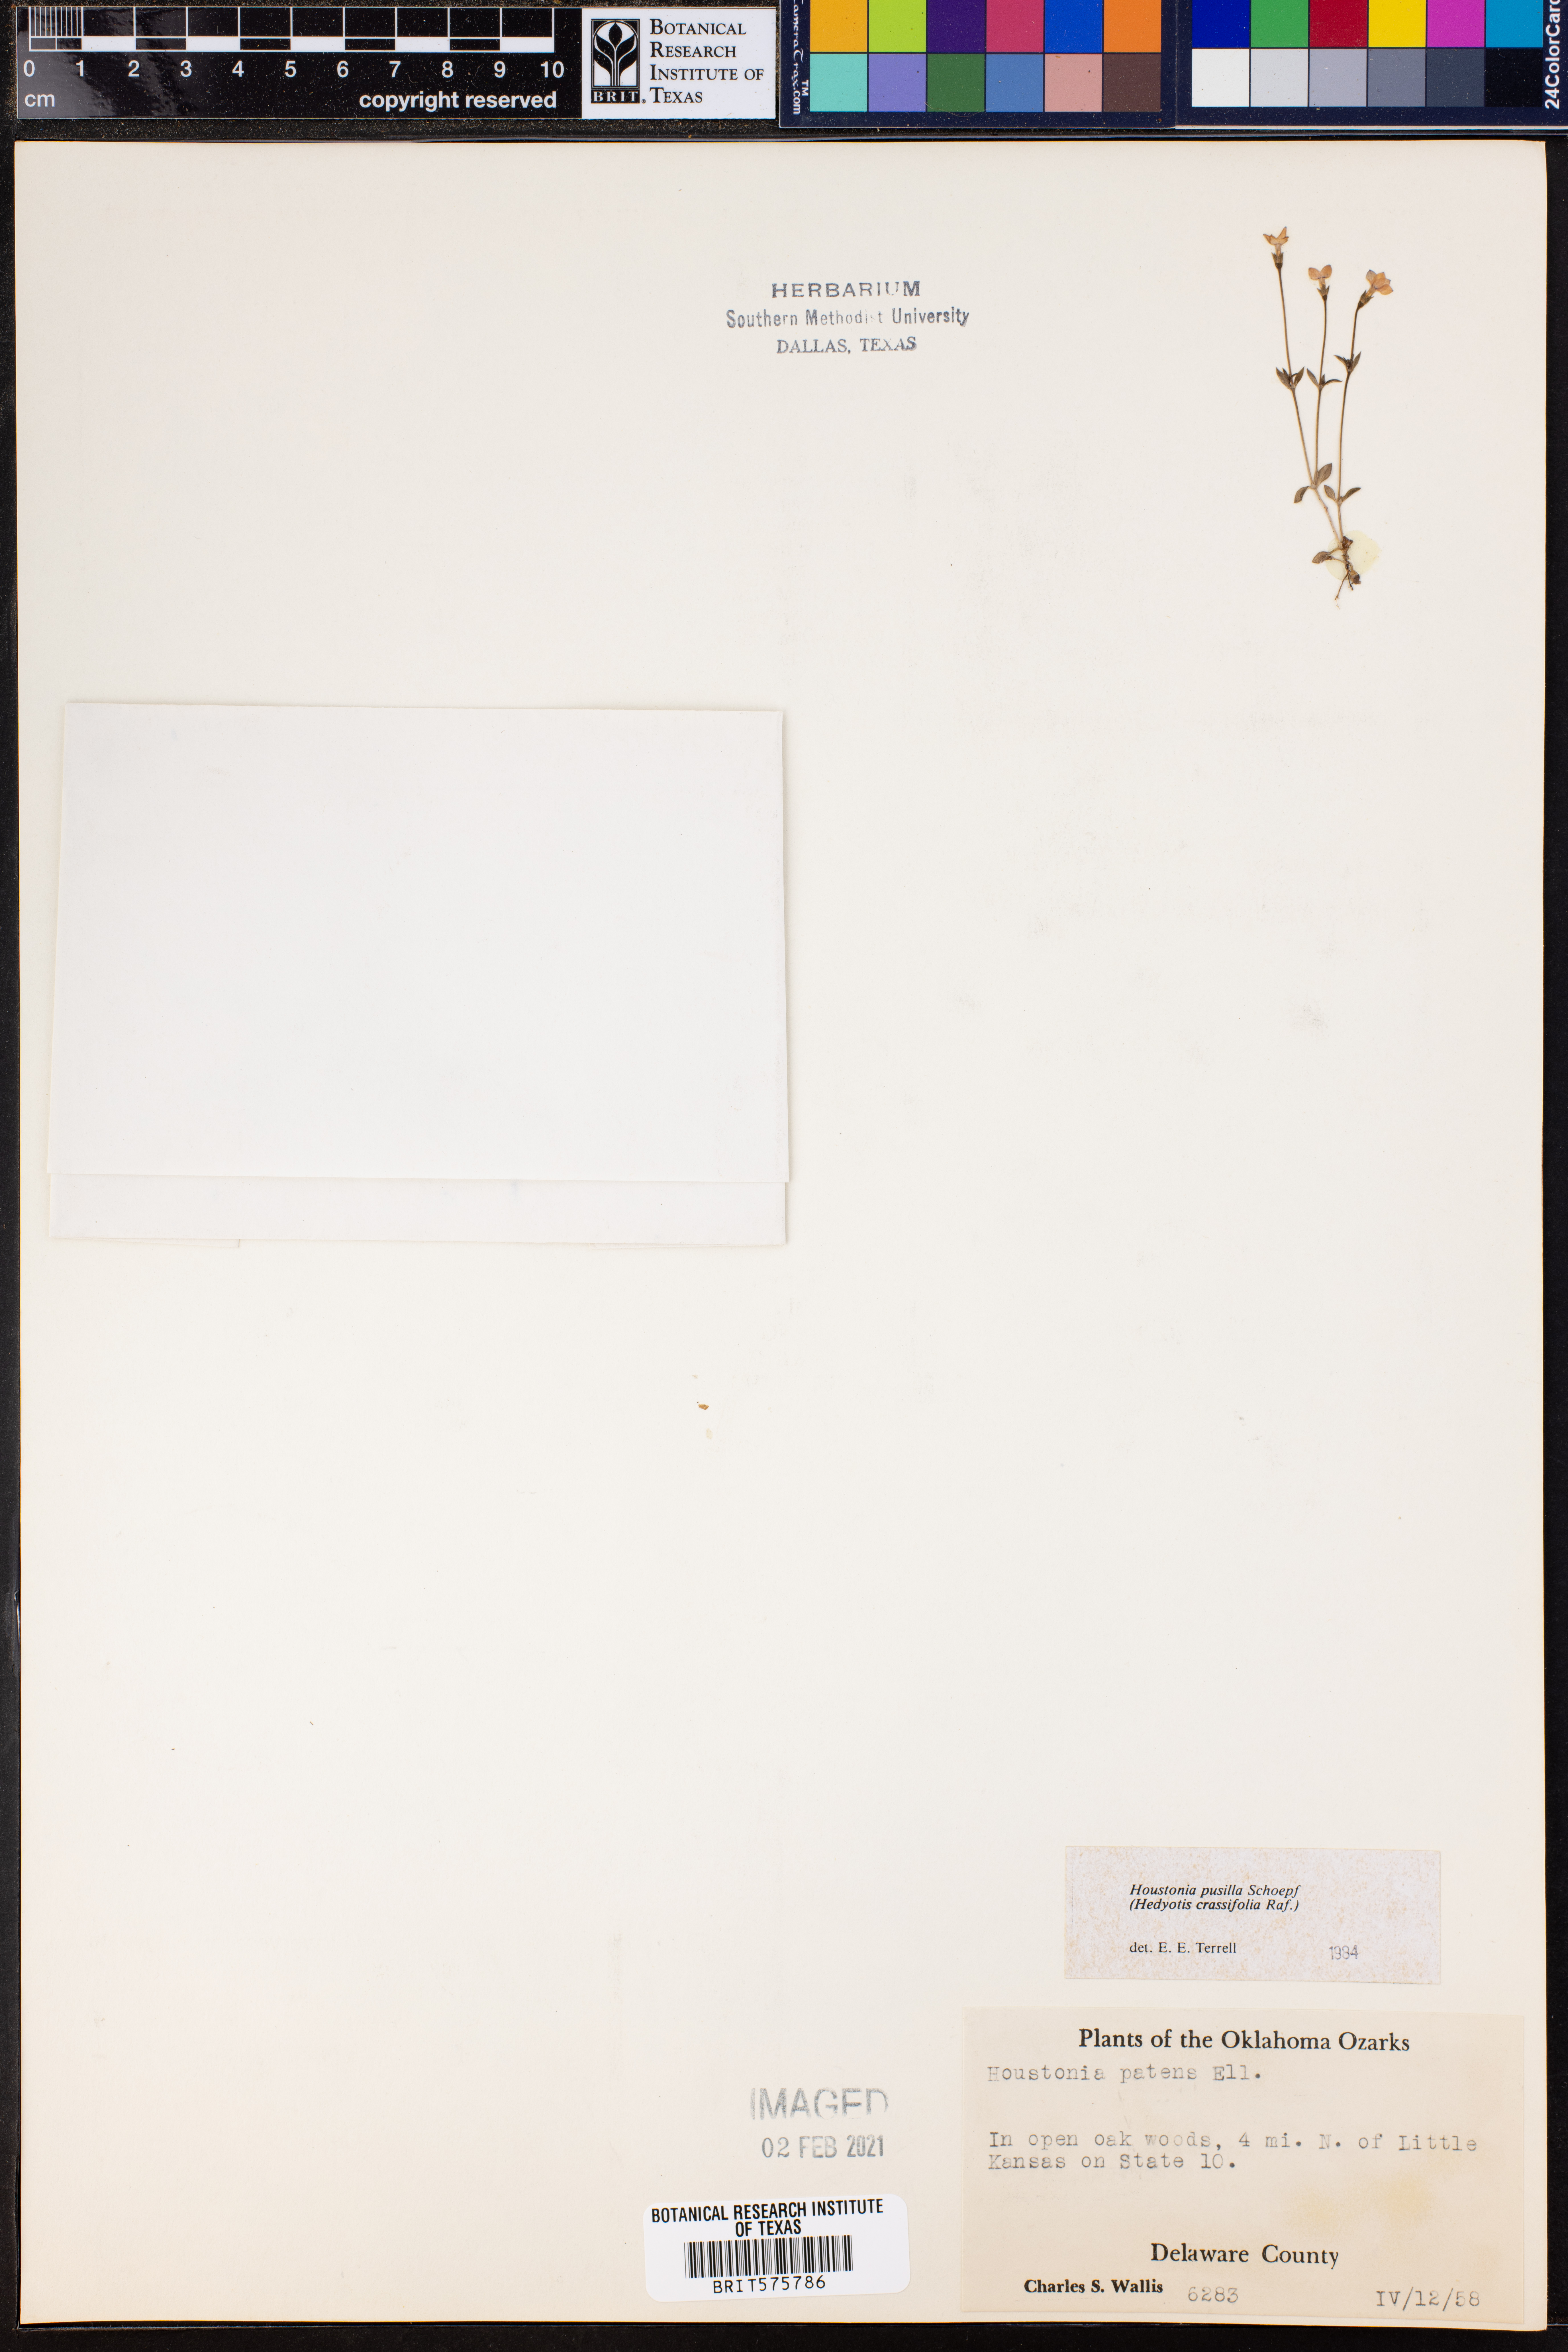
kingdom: Plantae
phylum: Tracheophyta
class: Magnoliopsida
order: Gentianales
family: Rubiaceae
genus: Houstonia
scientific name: Houstonia pusilla
